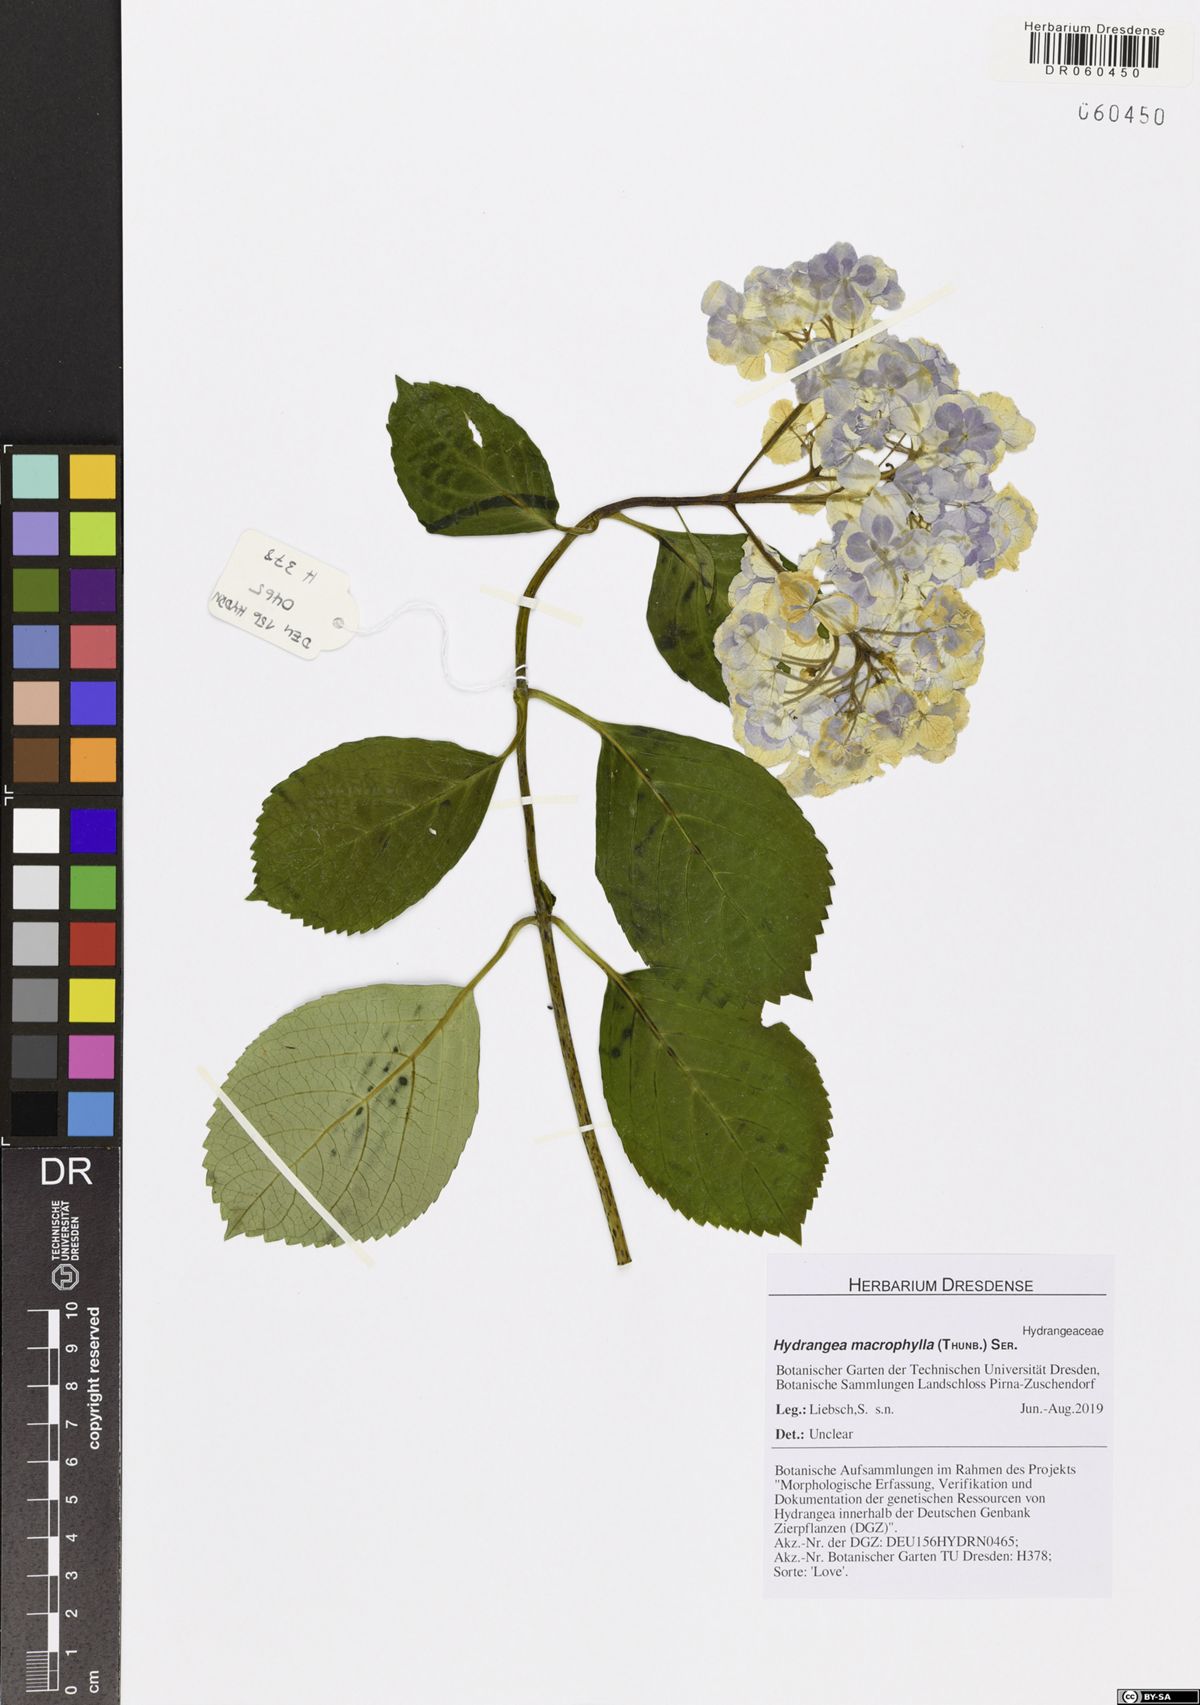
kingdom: Plantae
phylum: Tracheophyta
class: Magnoliopsida
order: Cornales
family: Hydrangeaceae
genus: Hydrangea
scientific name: Hydrangea macrophylla
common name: Hydrangea
